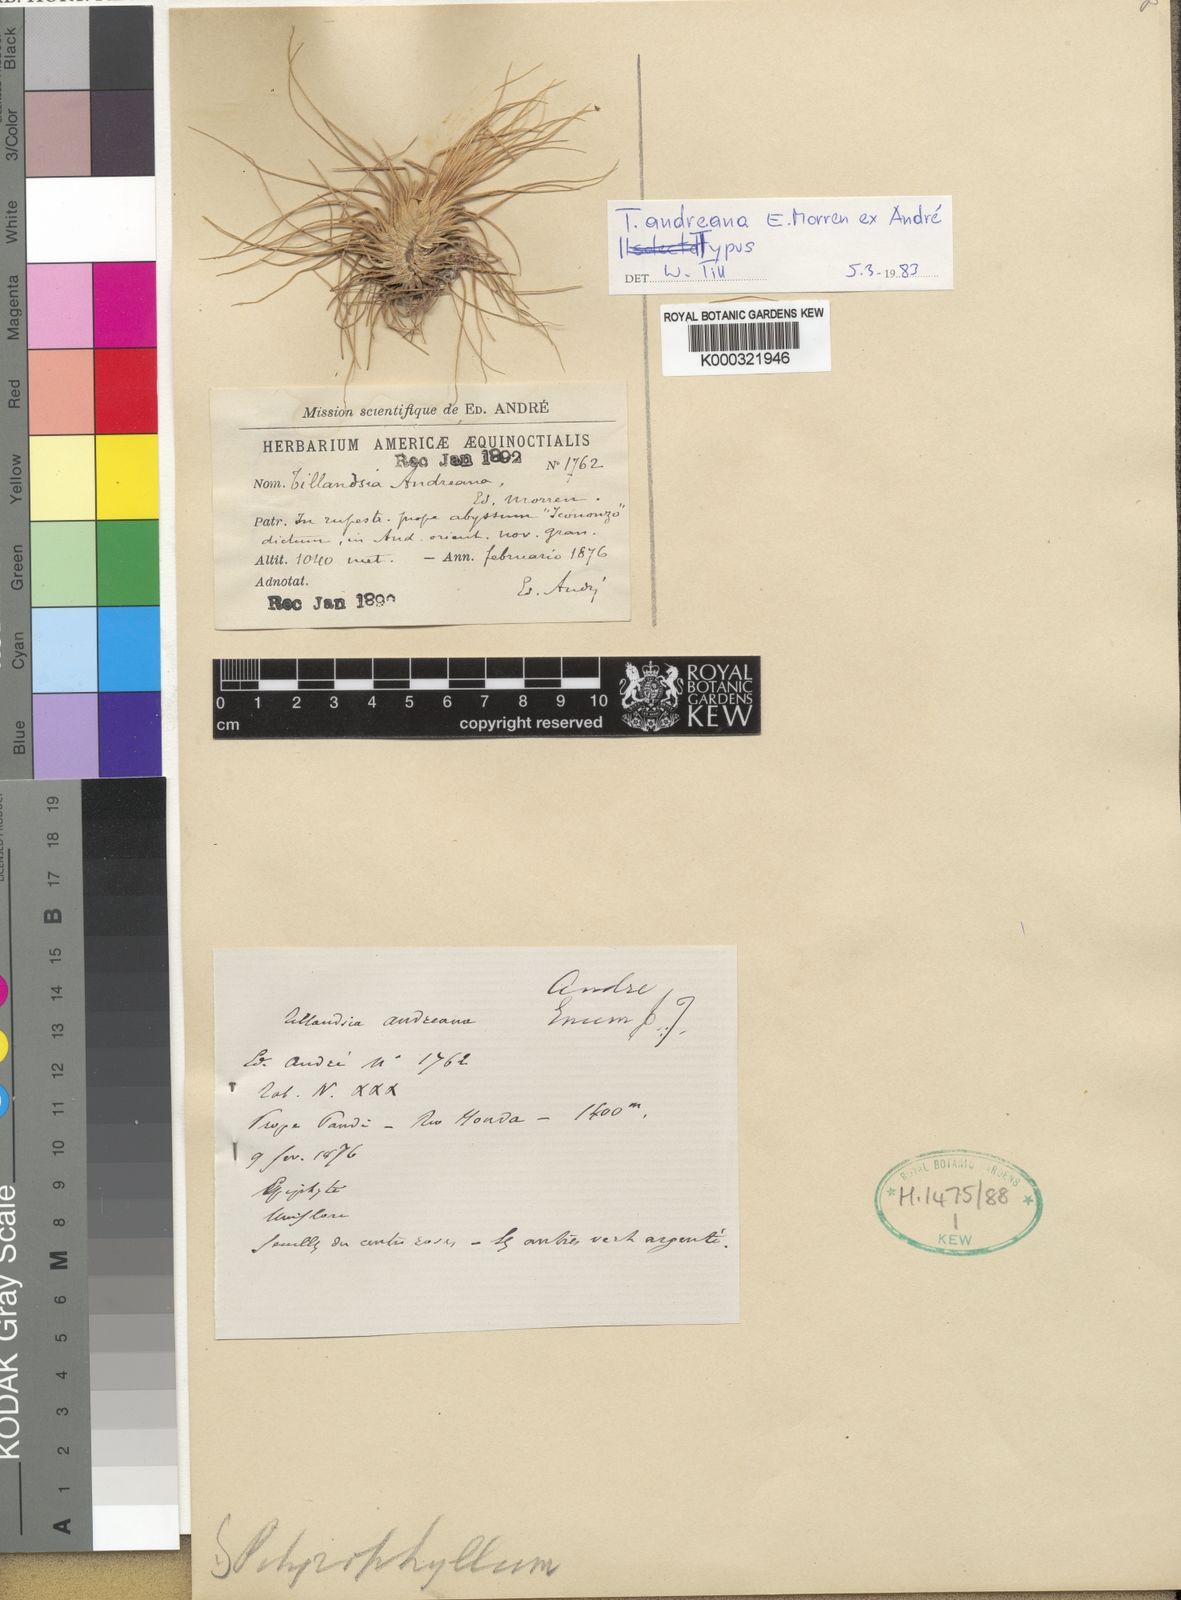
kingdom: Plantae
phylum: Tracheophyta
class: Liliopsida
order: Poales
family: Bromeliaceae
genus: Tillandsia
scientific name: Tillandsia
